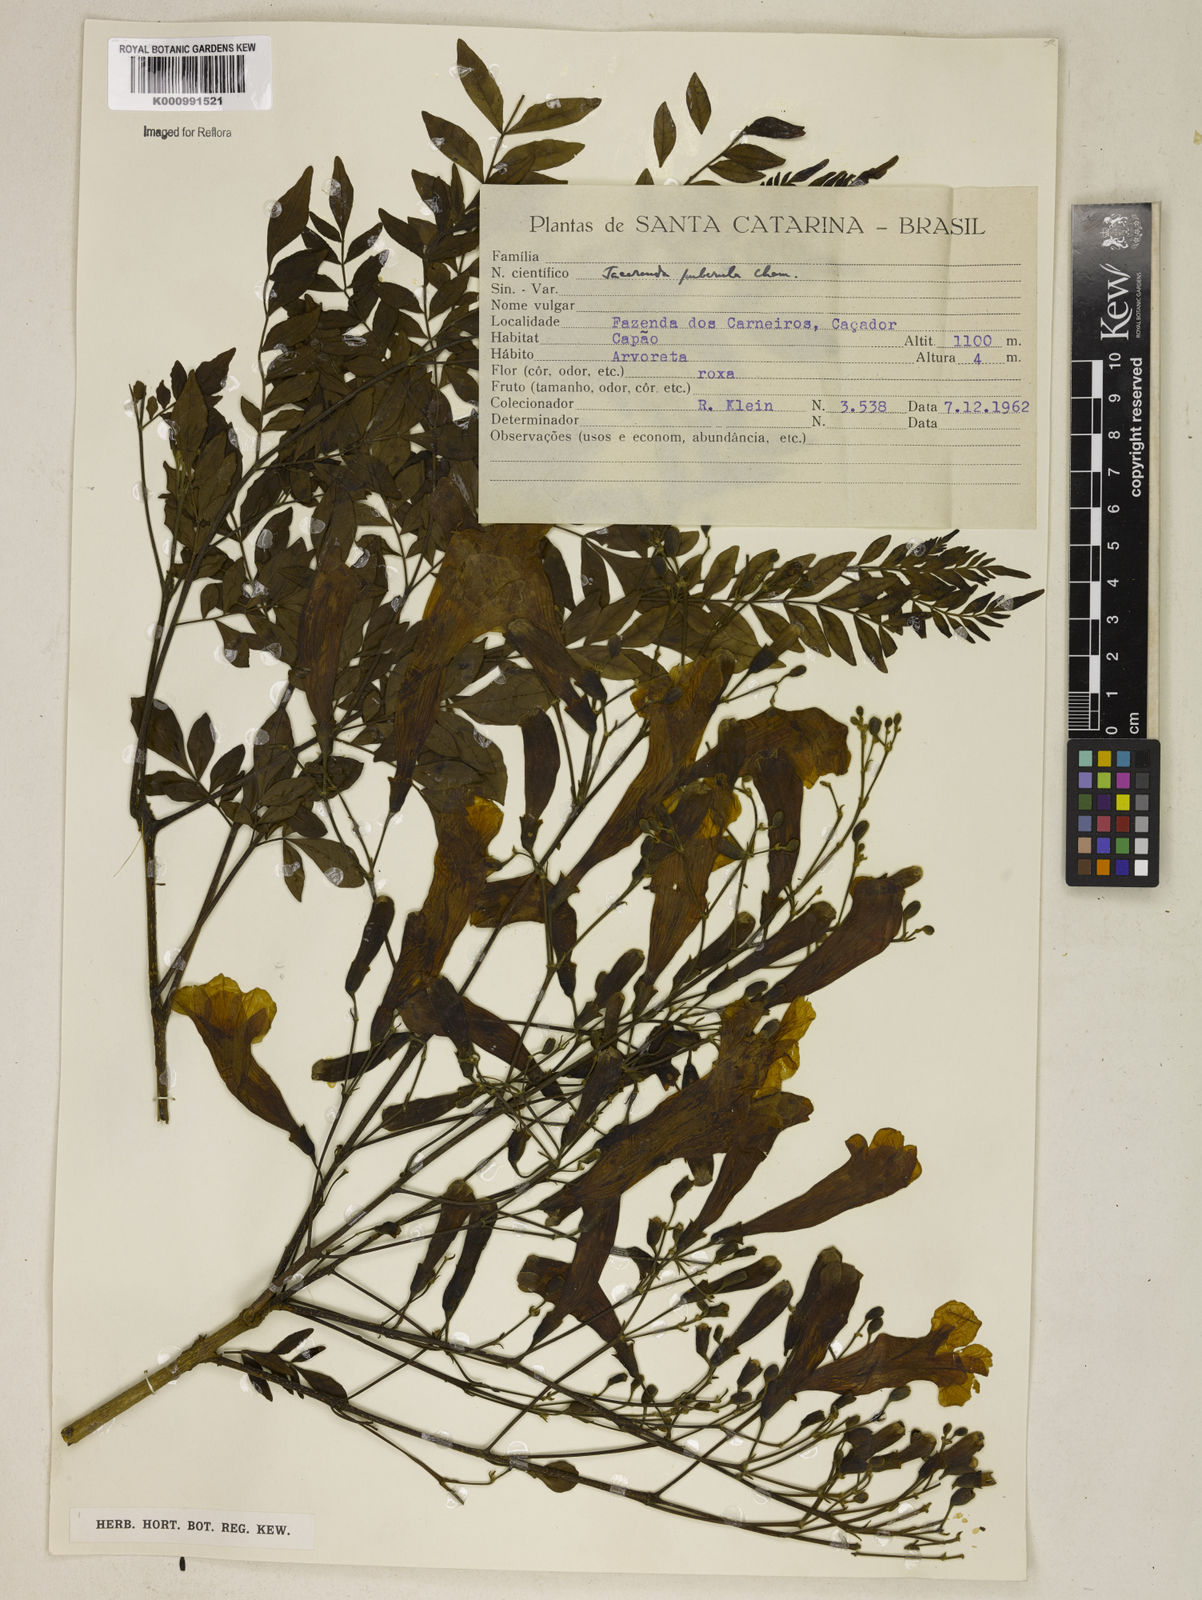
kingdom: Plantae
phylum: Tracheophyta
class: Magnoliopsida
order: Lamiales
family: Bignoniaceae
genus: Jacaranda
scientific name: Jacaranda puberula
